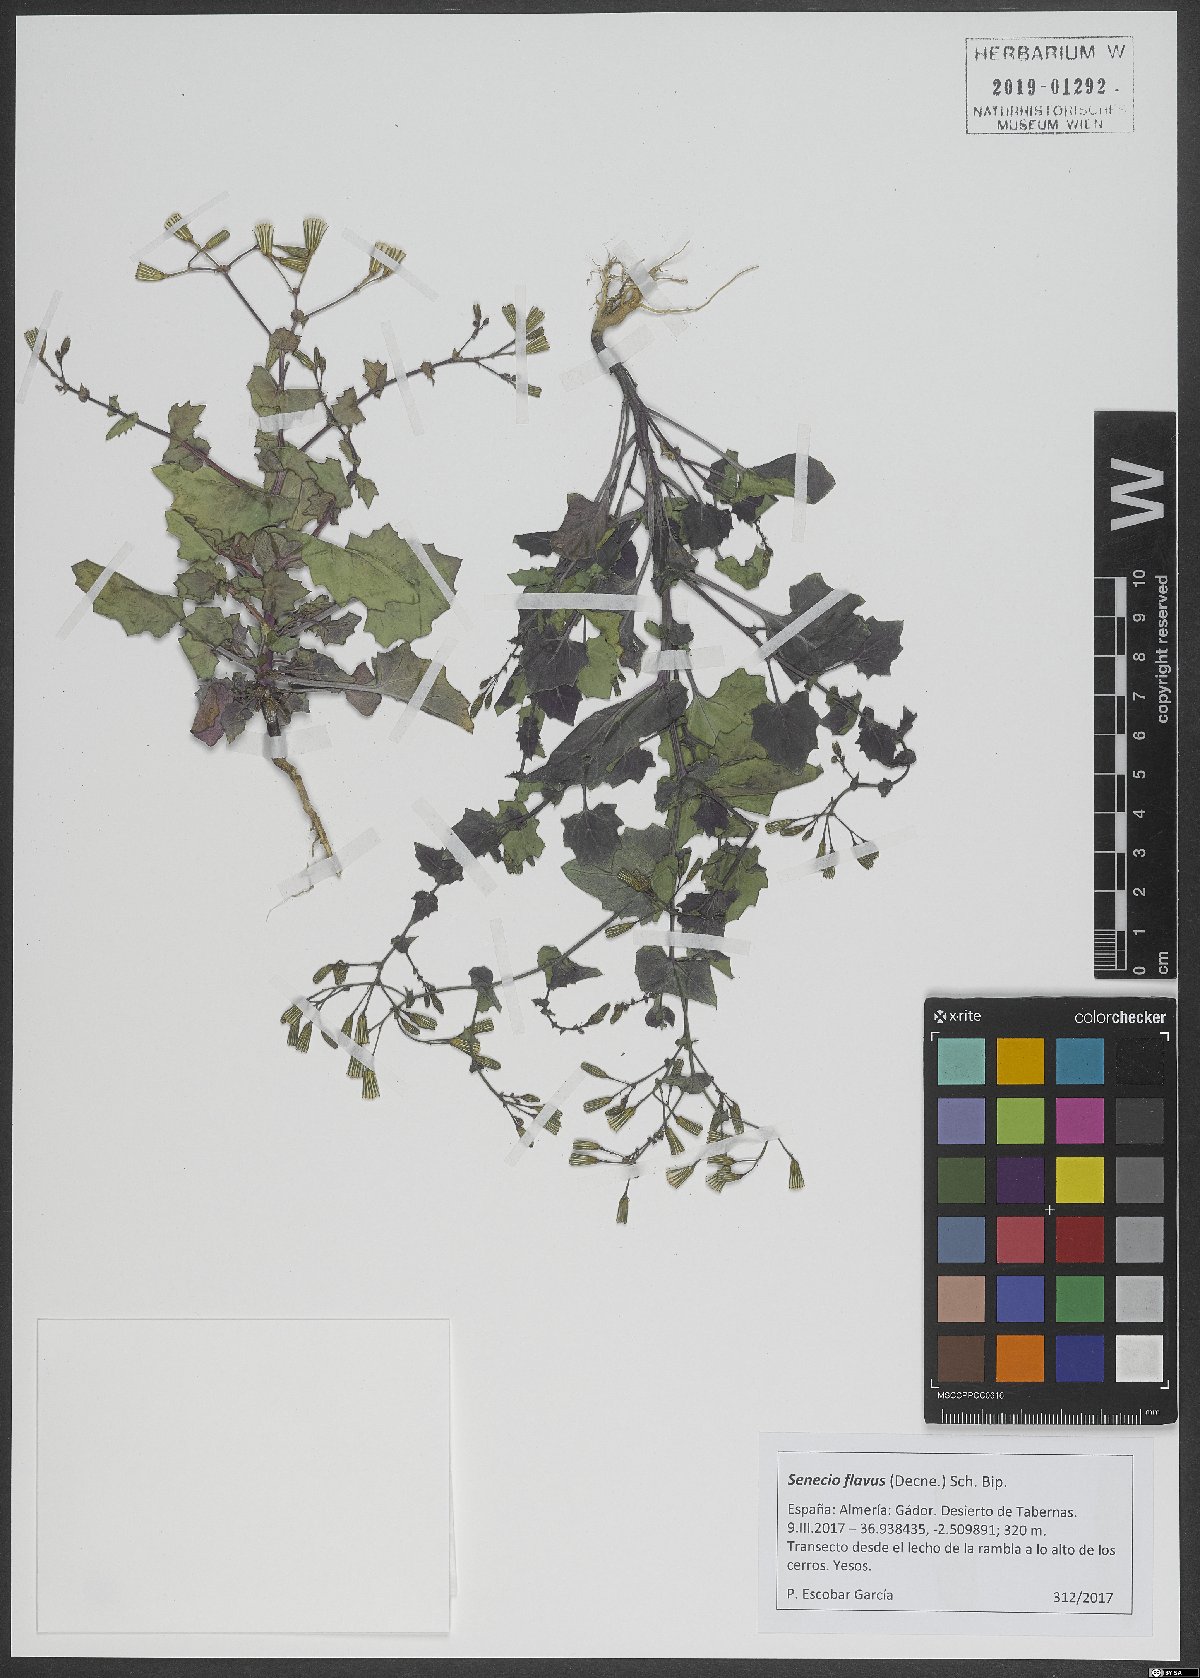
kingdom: Plantae
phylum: Tracheophyta
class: Magnoliopsida
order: Asterales
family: Asteraceae
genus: Senecio
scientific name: Senecio flavus
